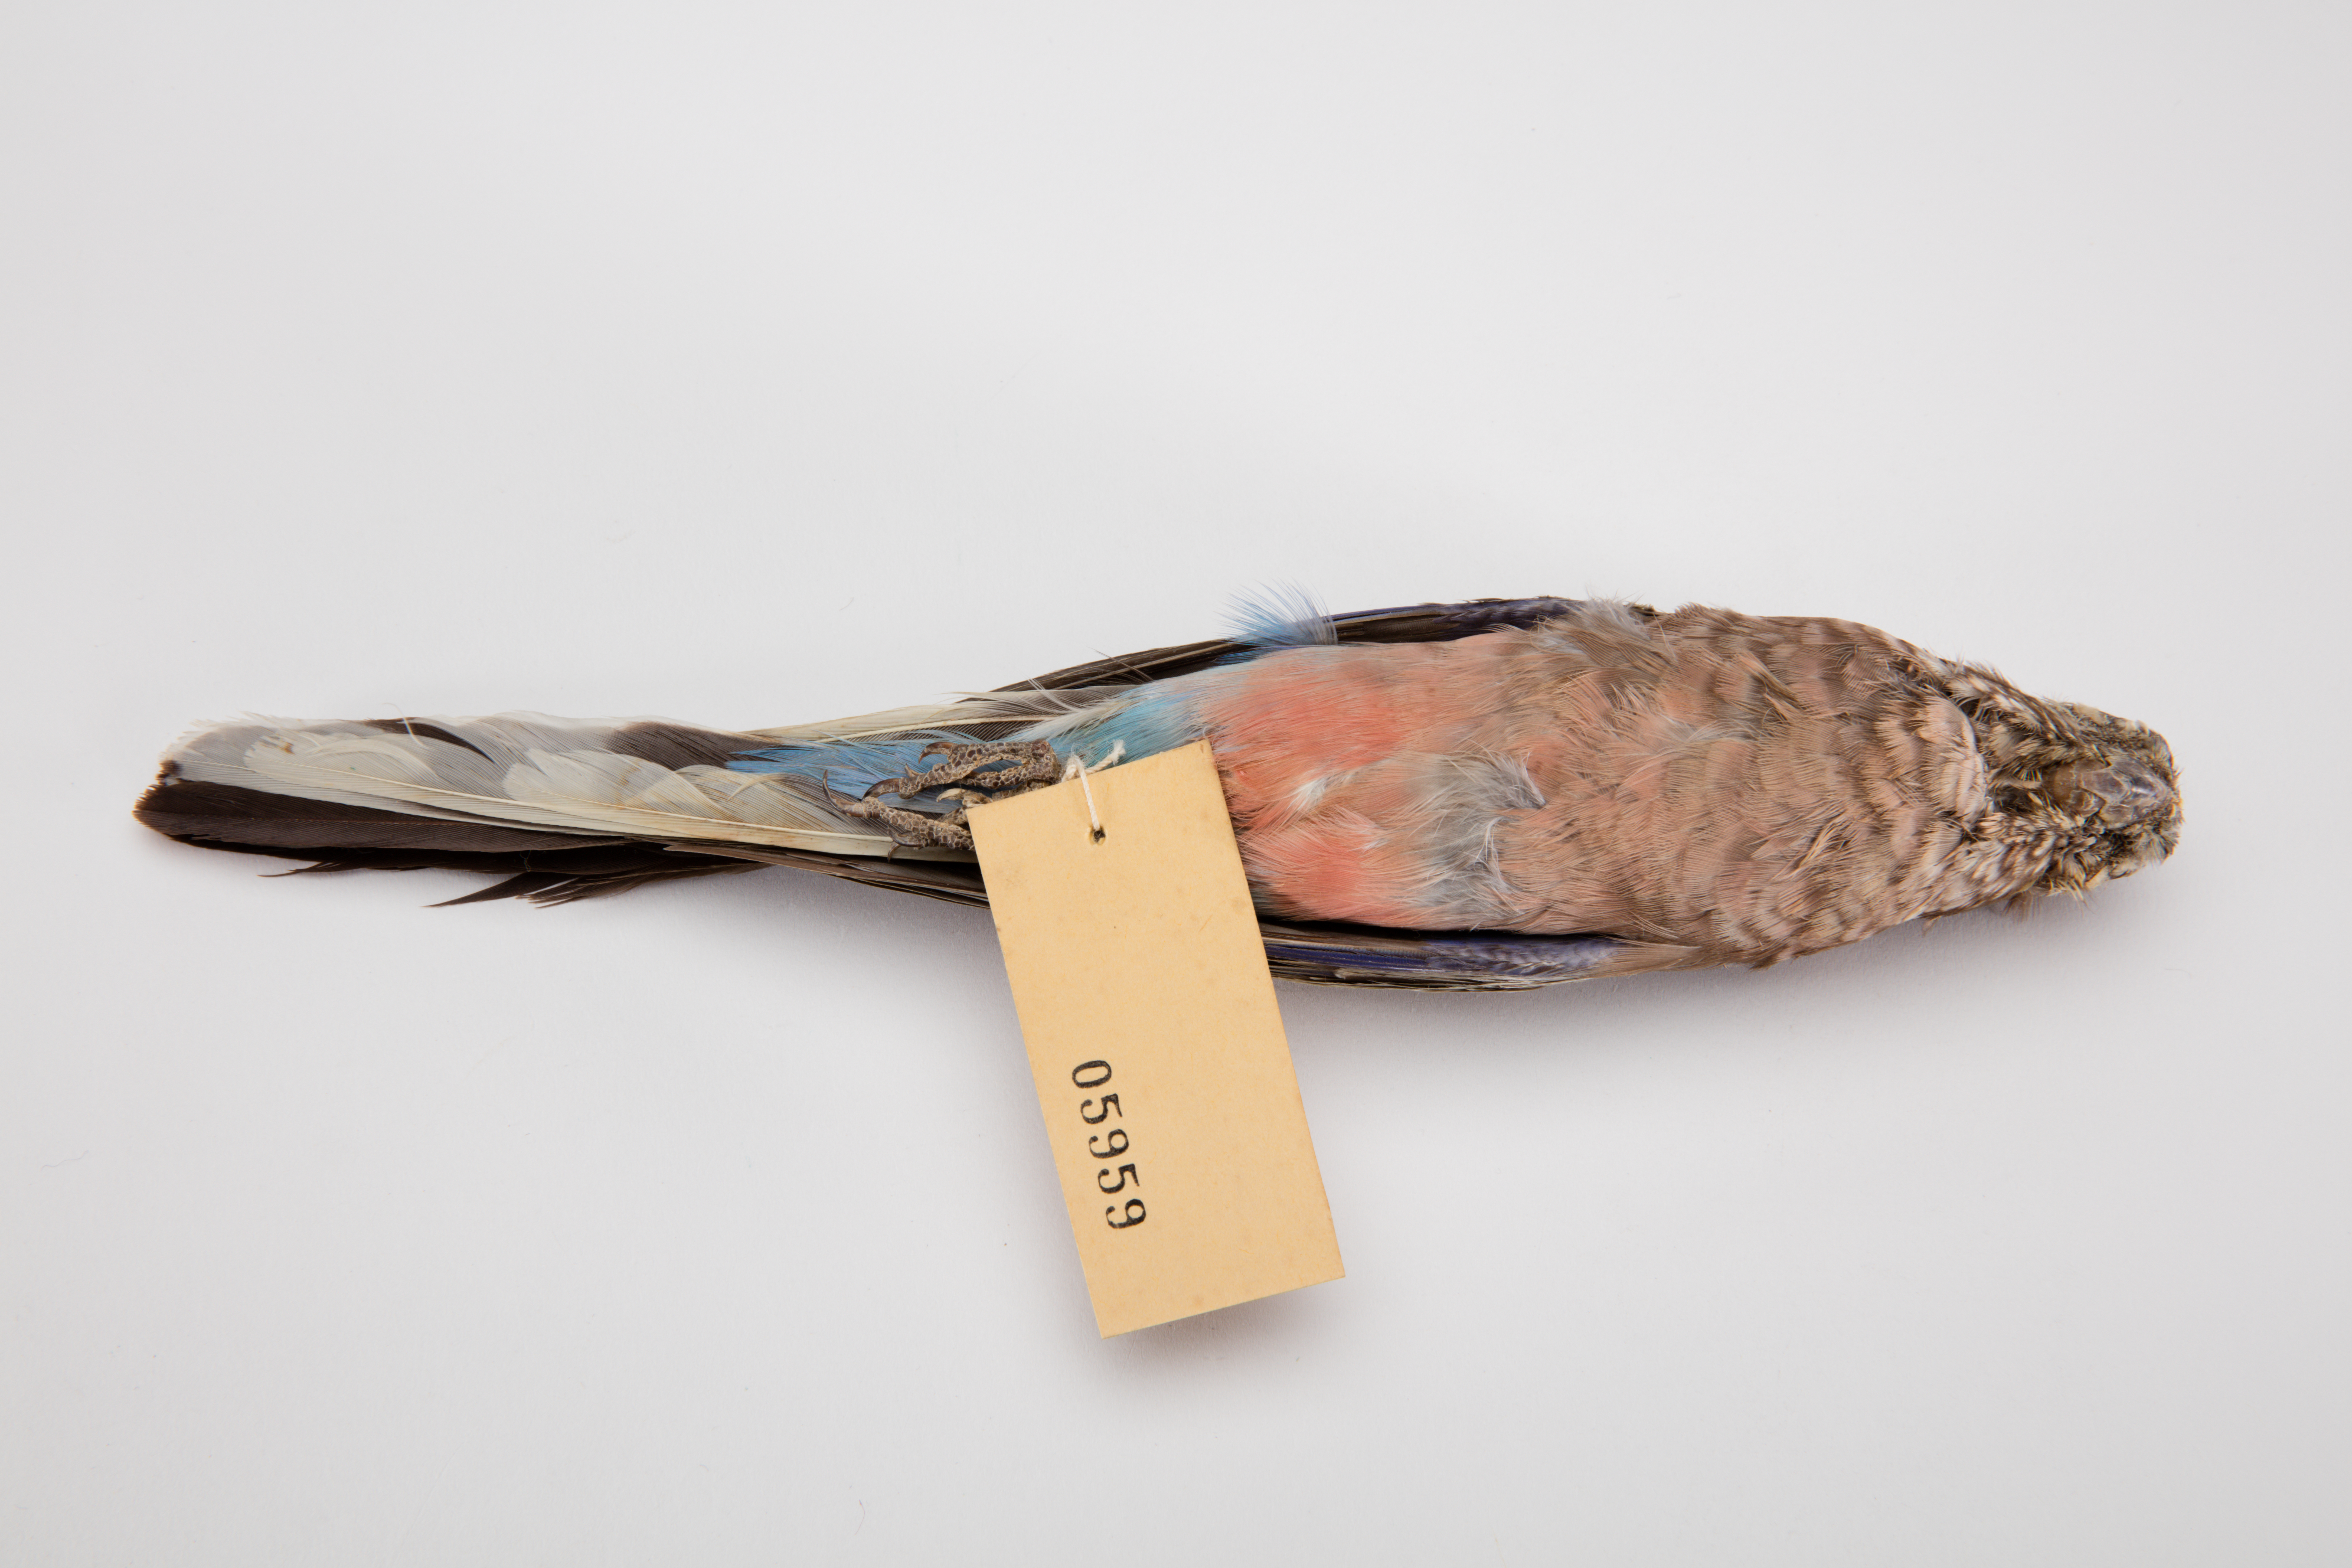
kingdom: Animalia
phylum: Chordata
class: Aves
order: Psittaciformes
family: Psittacidae
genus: Neopsephotus
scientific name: Neopsephotus bourkii
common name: Bourke's parrot
